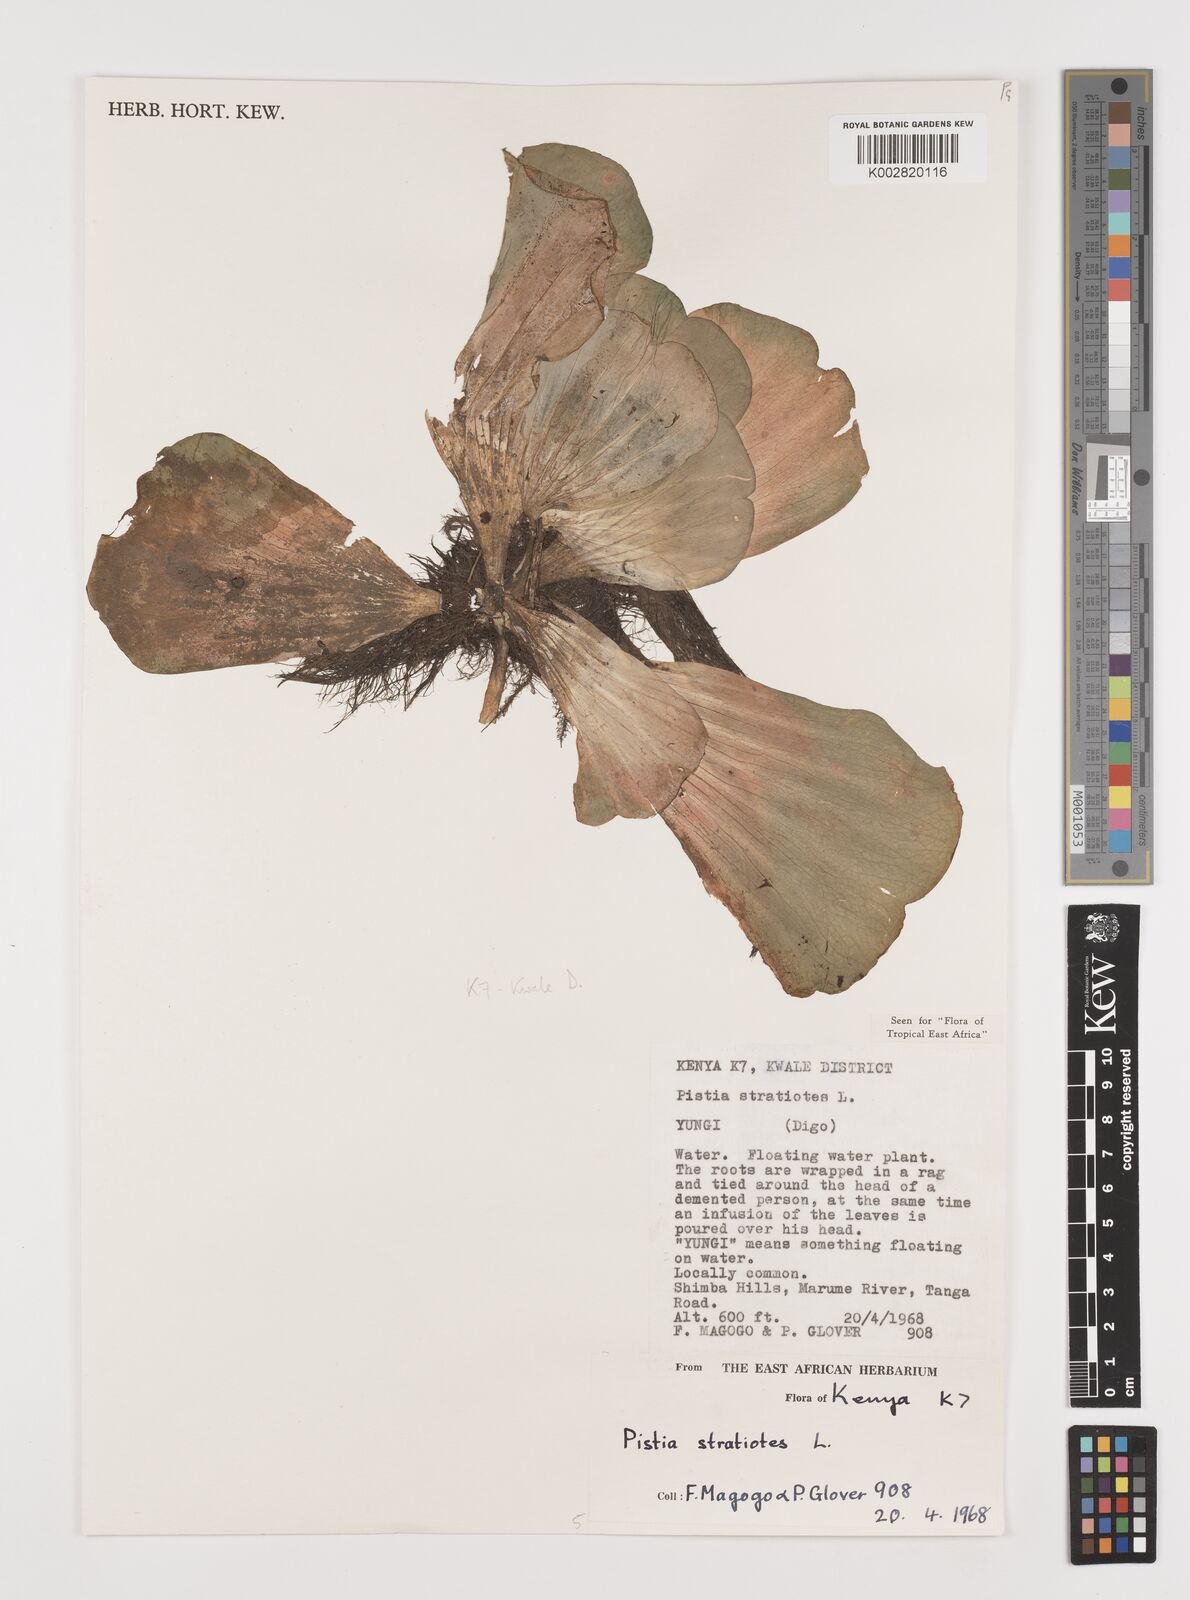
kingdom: Plantae
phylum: Tracheophyta
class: Liliopsida
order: Alismatales
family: Araceae
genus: Pistia
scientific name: Pistia stratiotes
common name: Water lettuce
